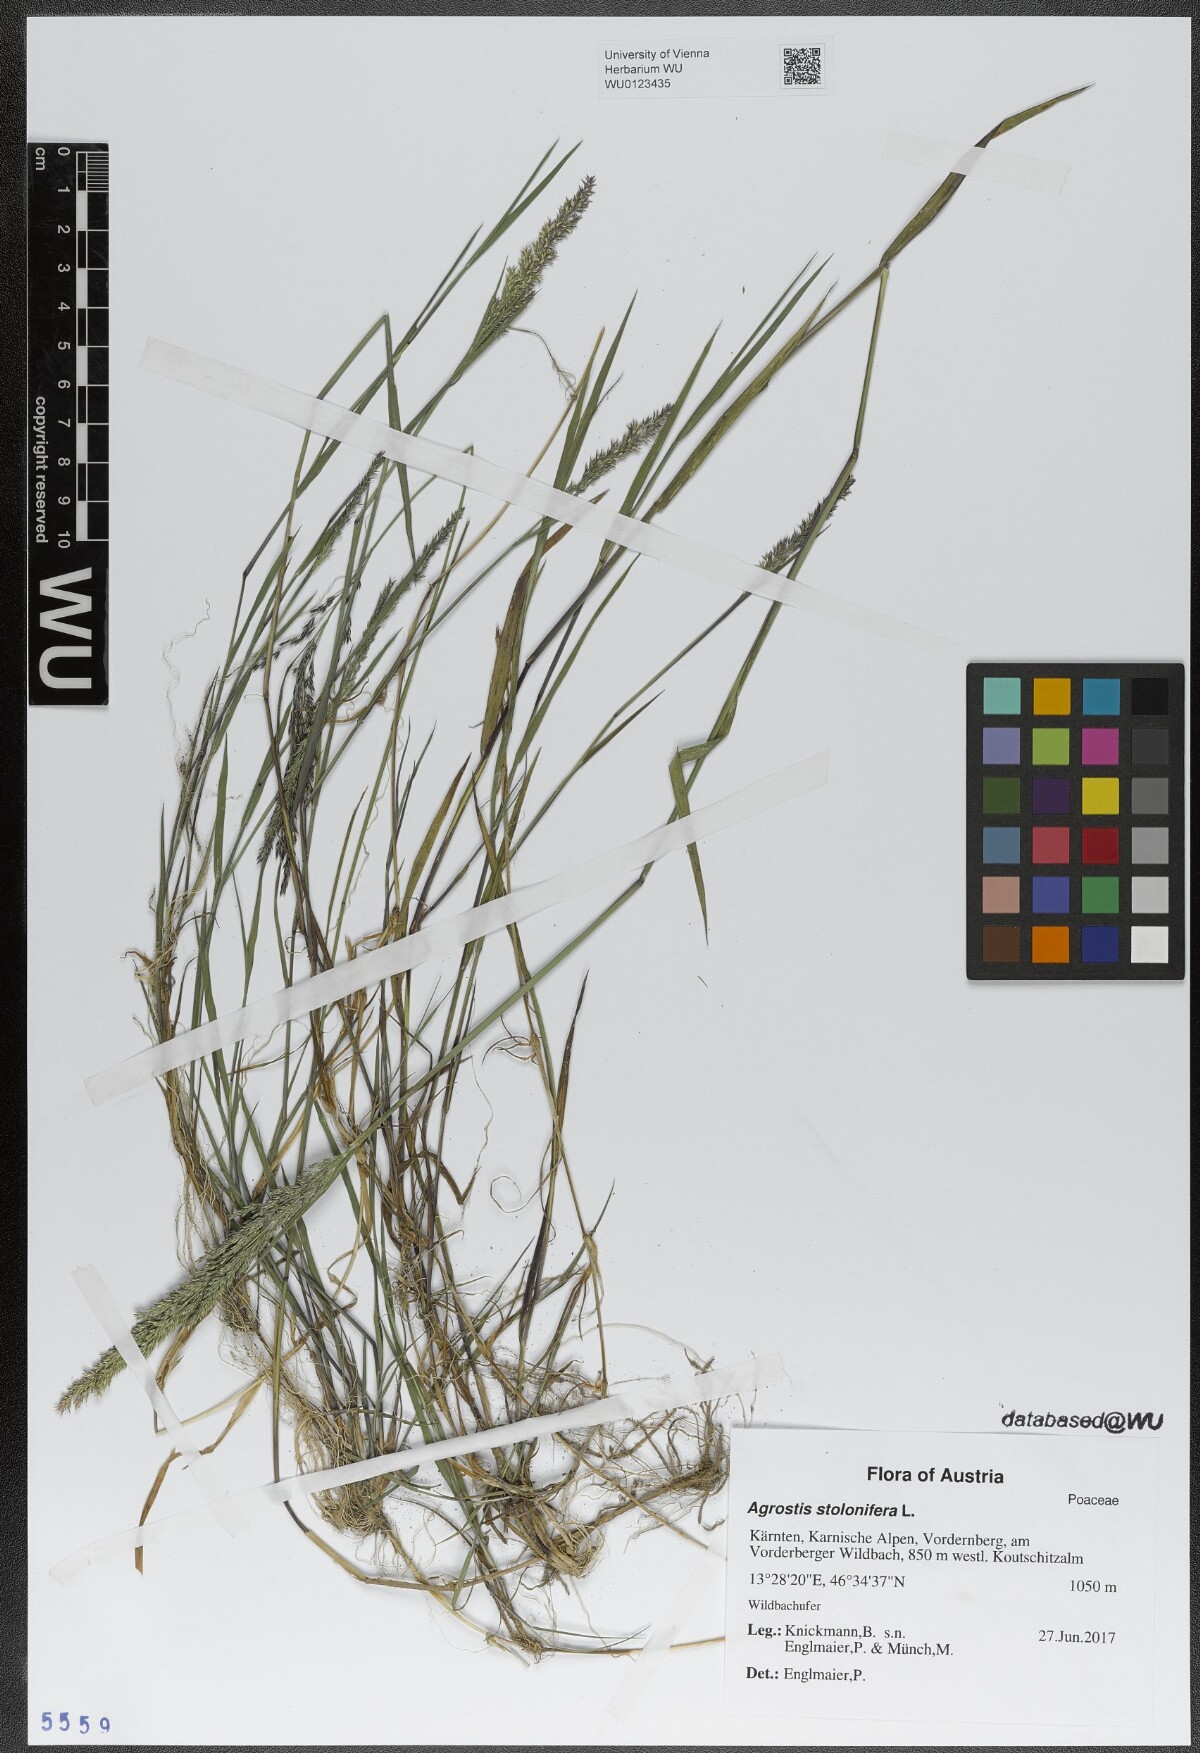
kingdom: Plantae
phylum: Tracheophyta
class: Liliopsida
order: Poales
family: Poaceae
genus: Agrostis
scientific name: Agrostis stolonifera
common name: Creeping bentgrass
